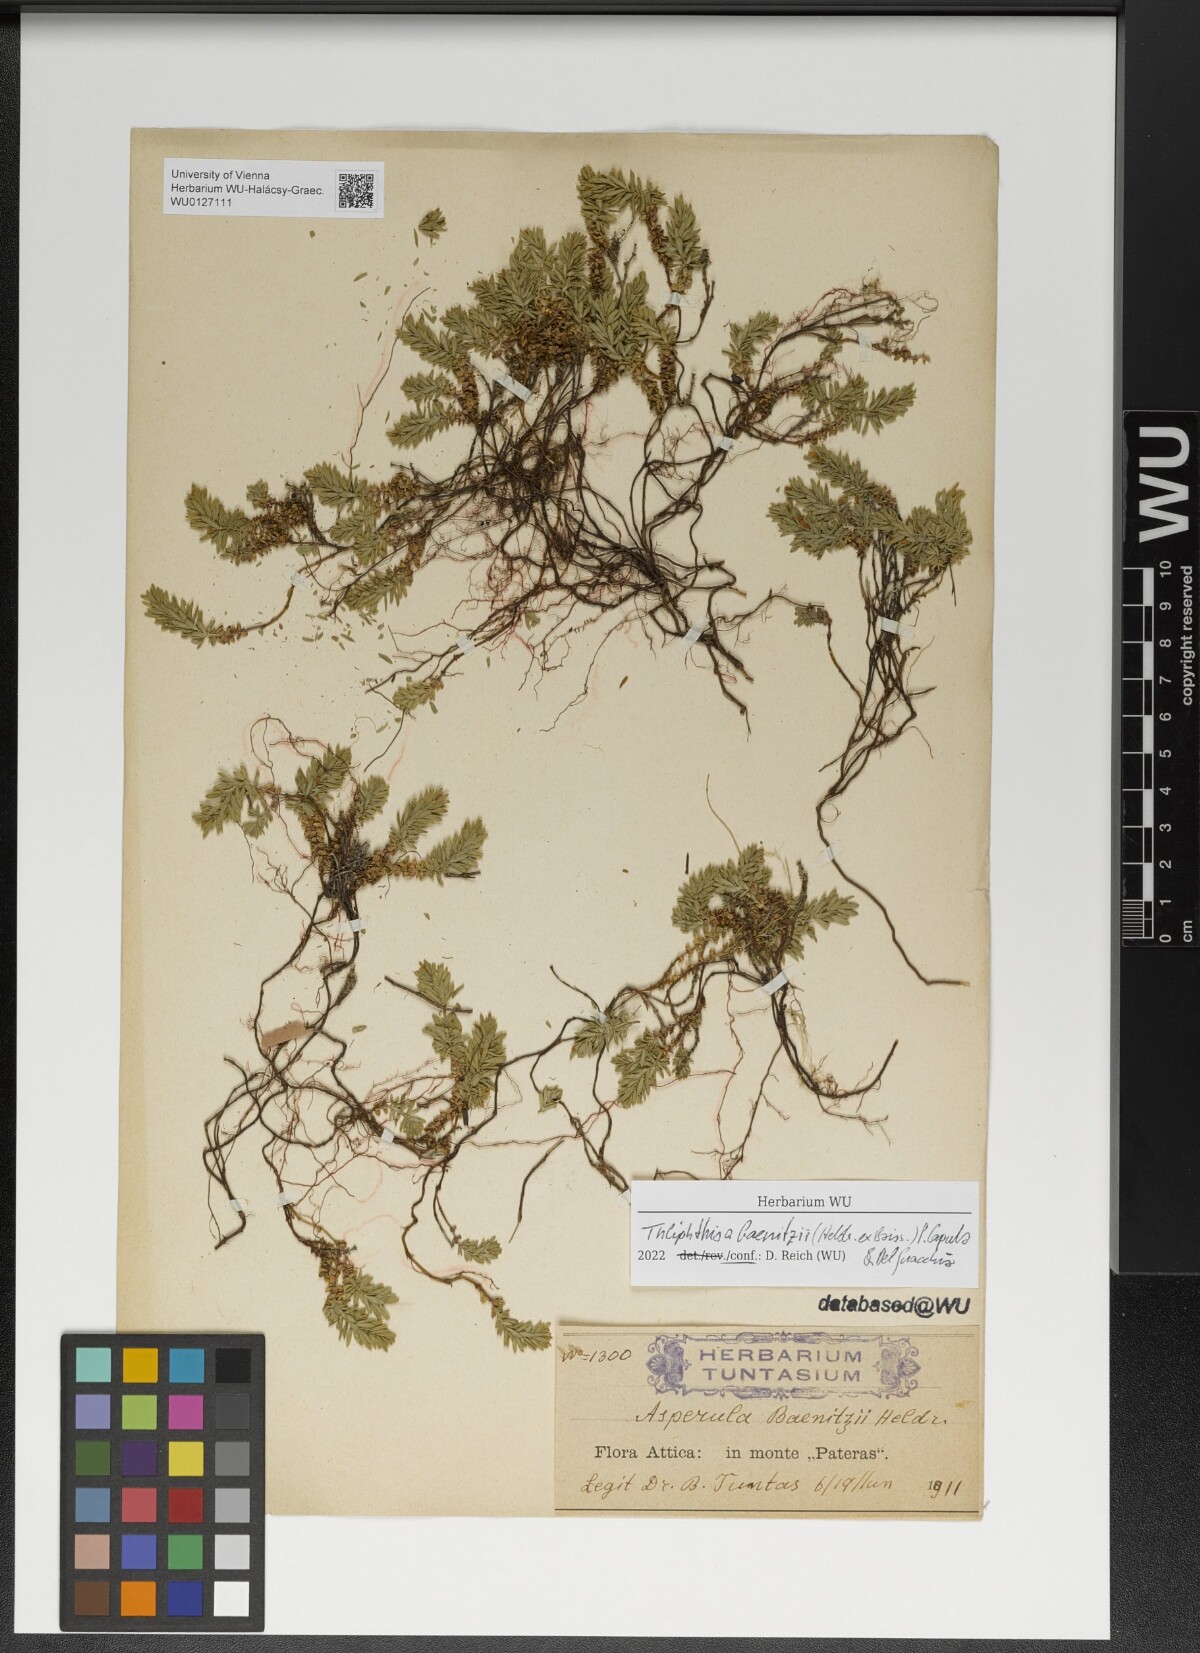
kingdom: Plantae
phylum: Tracheophyta
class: Magnoliopsida
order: Gentianales
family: Rubiaceae
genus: Thliphthisa
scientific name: Thliphthisa baenitzii
